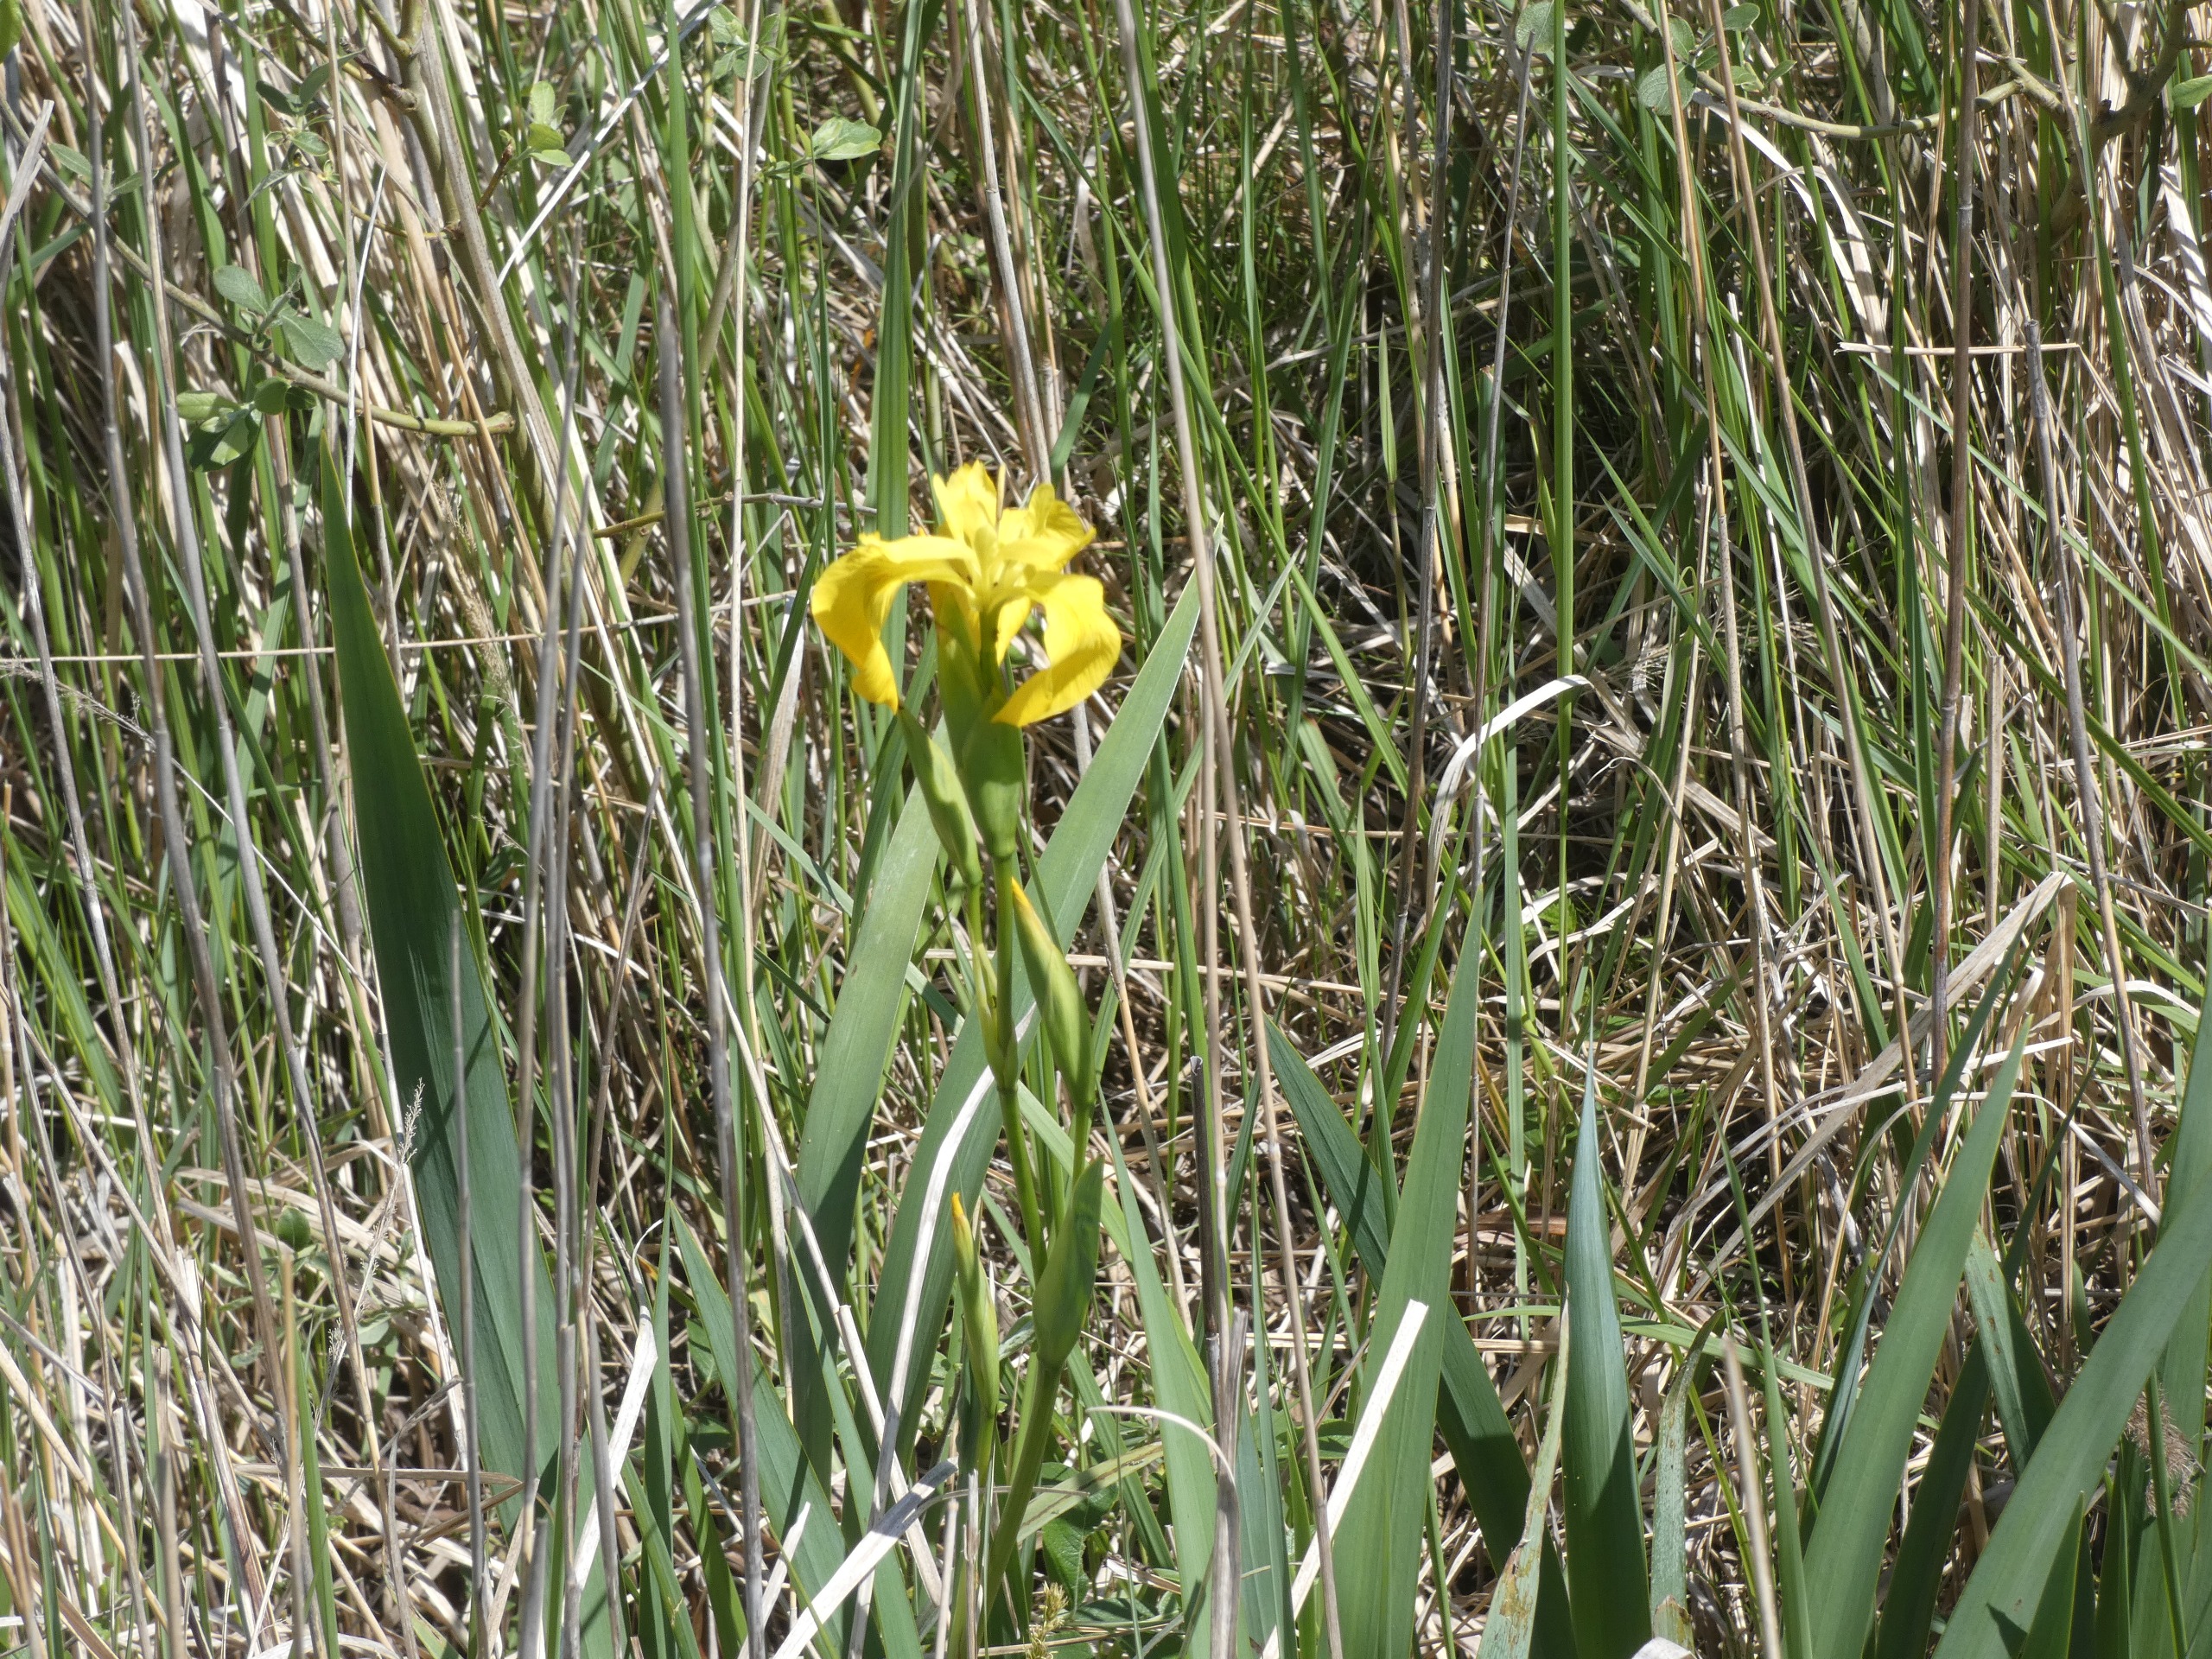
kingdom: Plantae
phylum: Tracheophyta
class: Liliopsida
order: Asparagales
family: Iridaceae
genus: Iris
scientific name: Iris pseudacorus
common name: Gul iris
